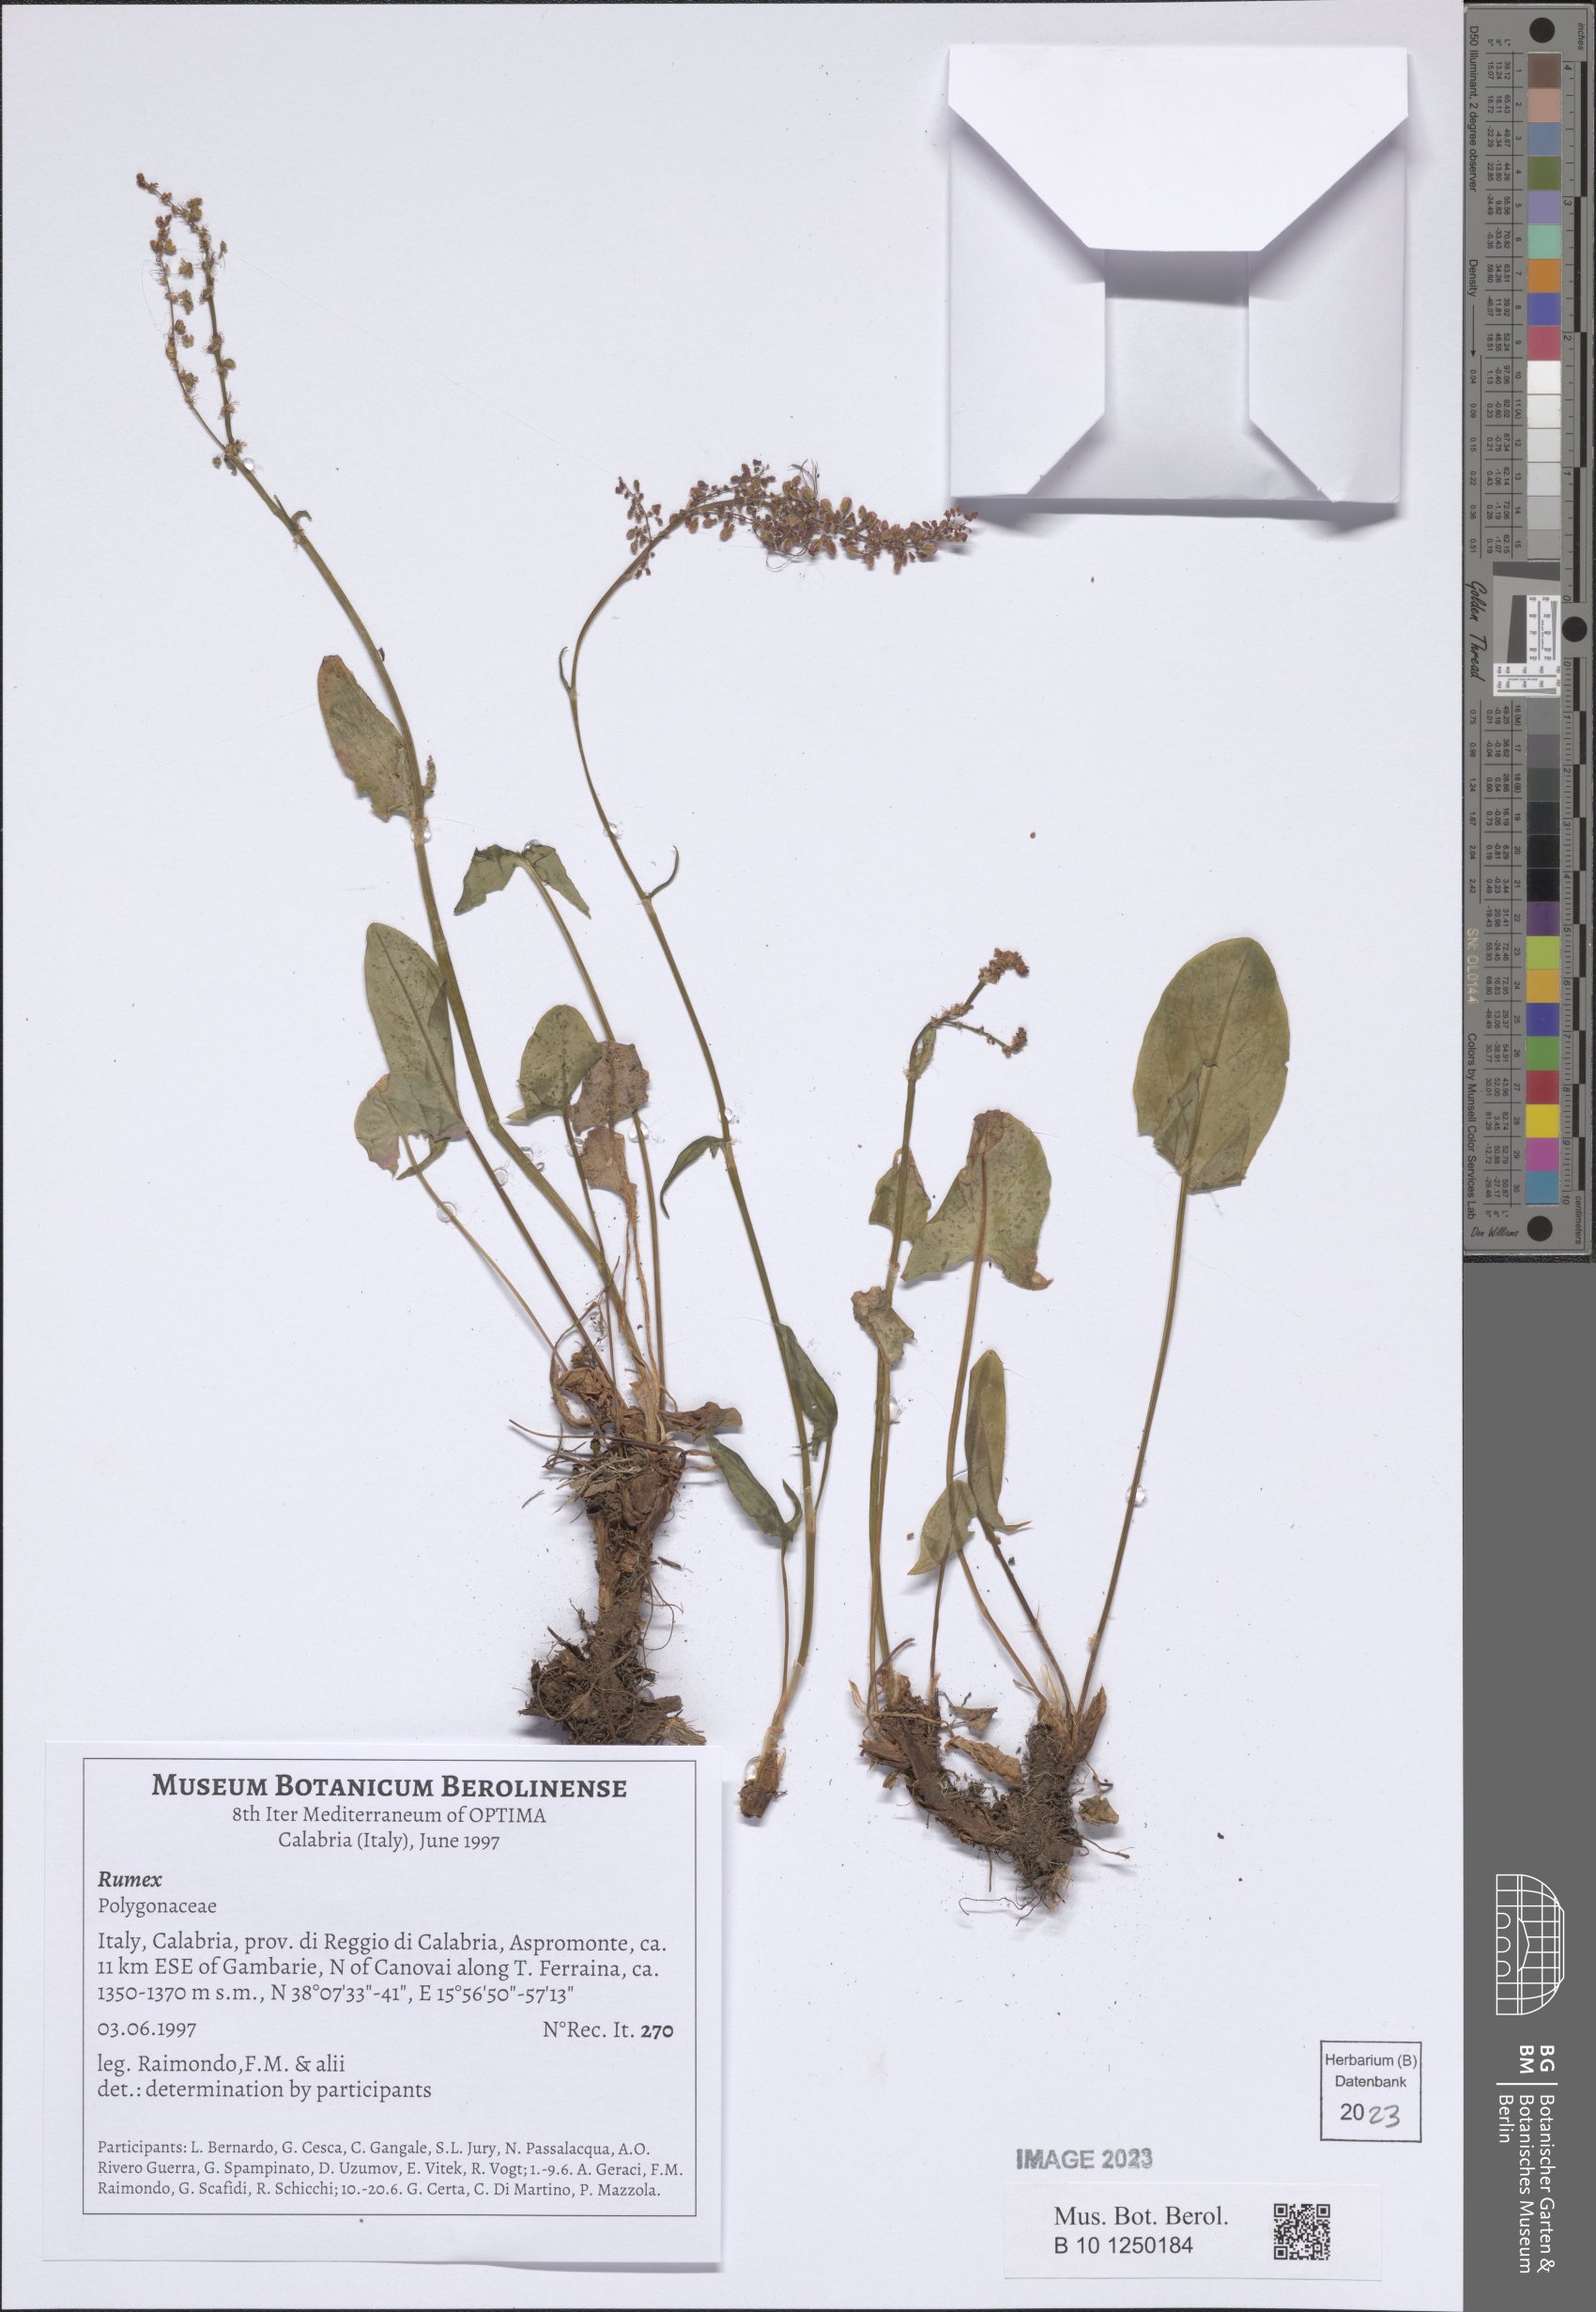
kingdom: Plantae
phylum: Tracheophyta
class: Magnoliopsida
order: Caryophyllales
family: Polygonaceae
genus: Rumex
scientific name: Rumex
